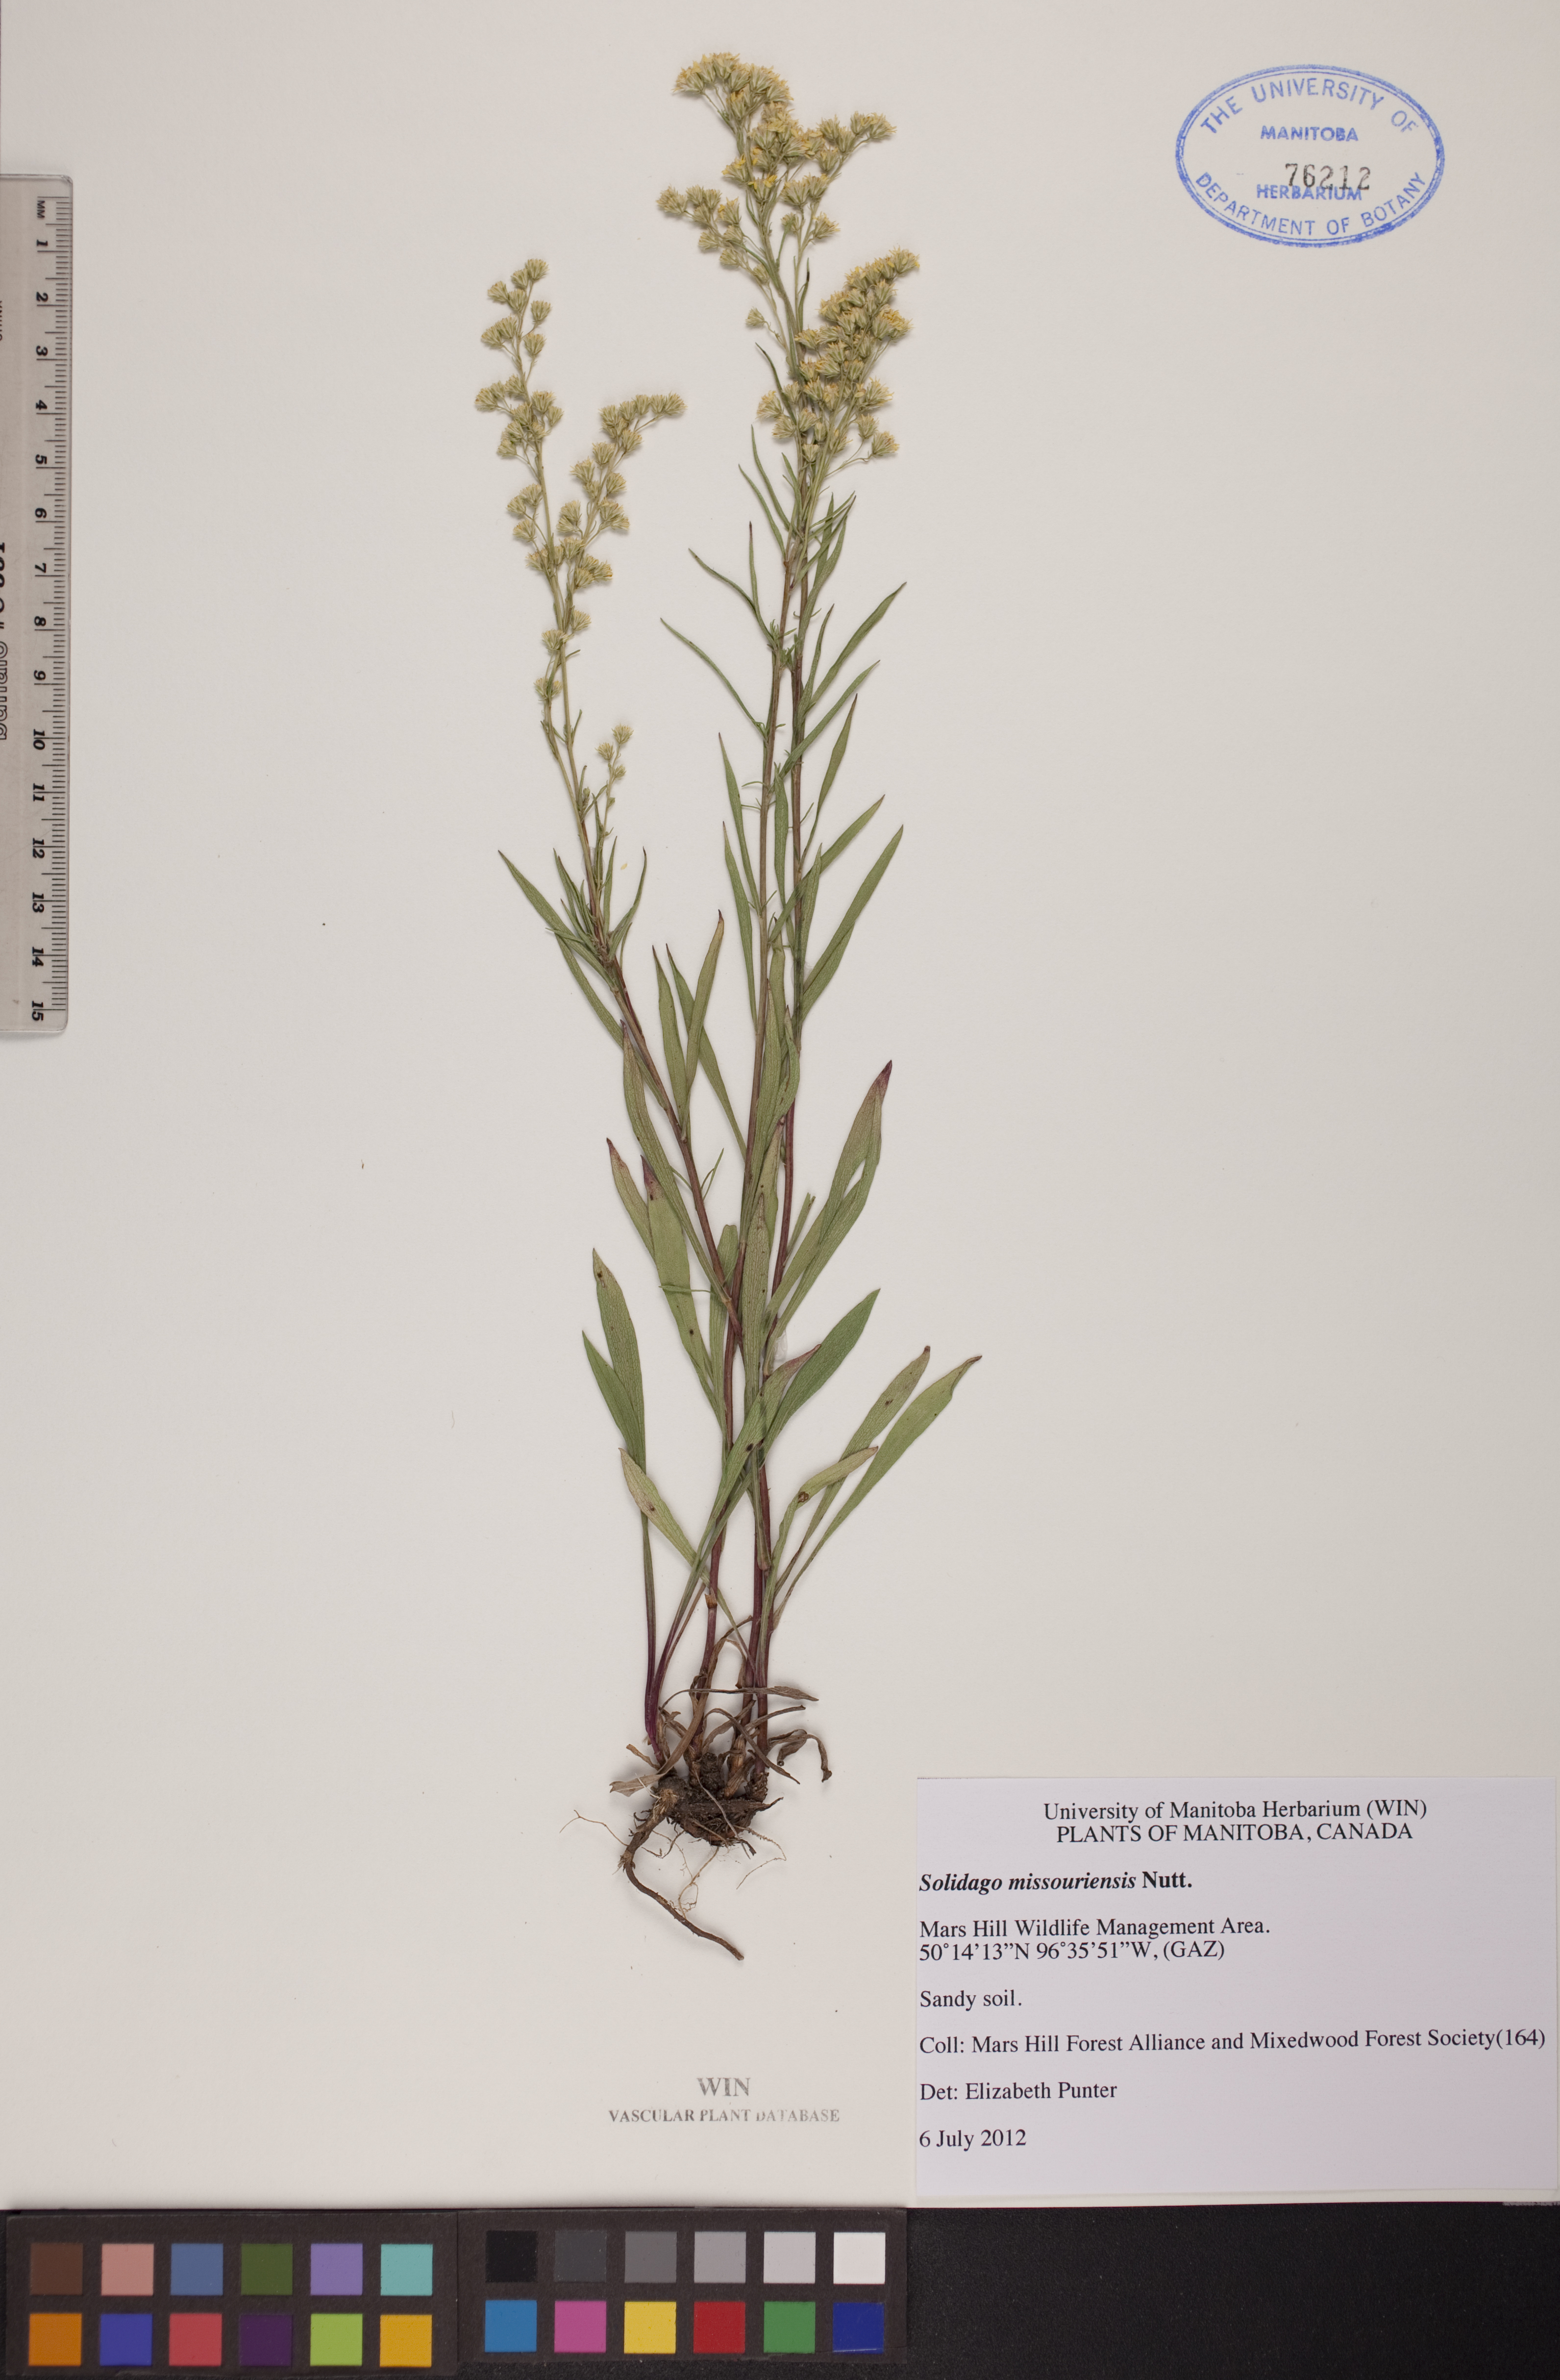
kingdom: Plantae
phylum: Tracheophyta
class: Magnoliopsida
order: Asterales
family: Asteraceae
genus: Solidago
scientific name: Solidago missouriensis
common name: Prairie goldenrod
